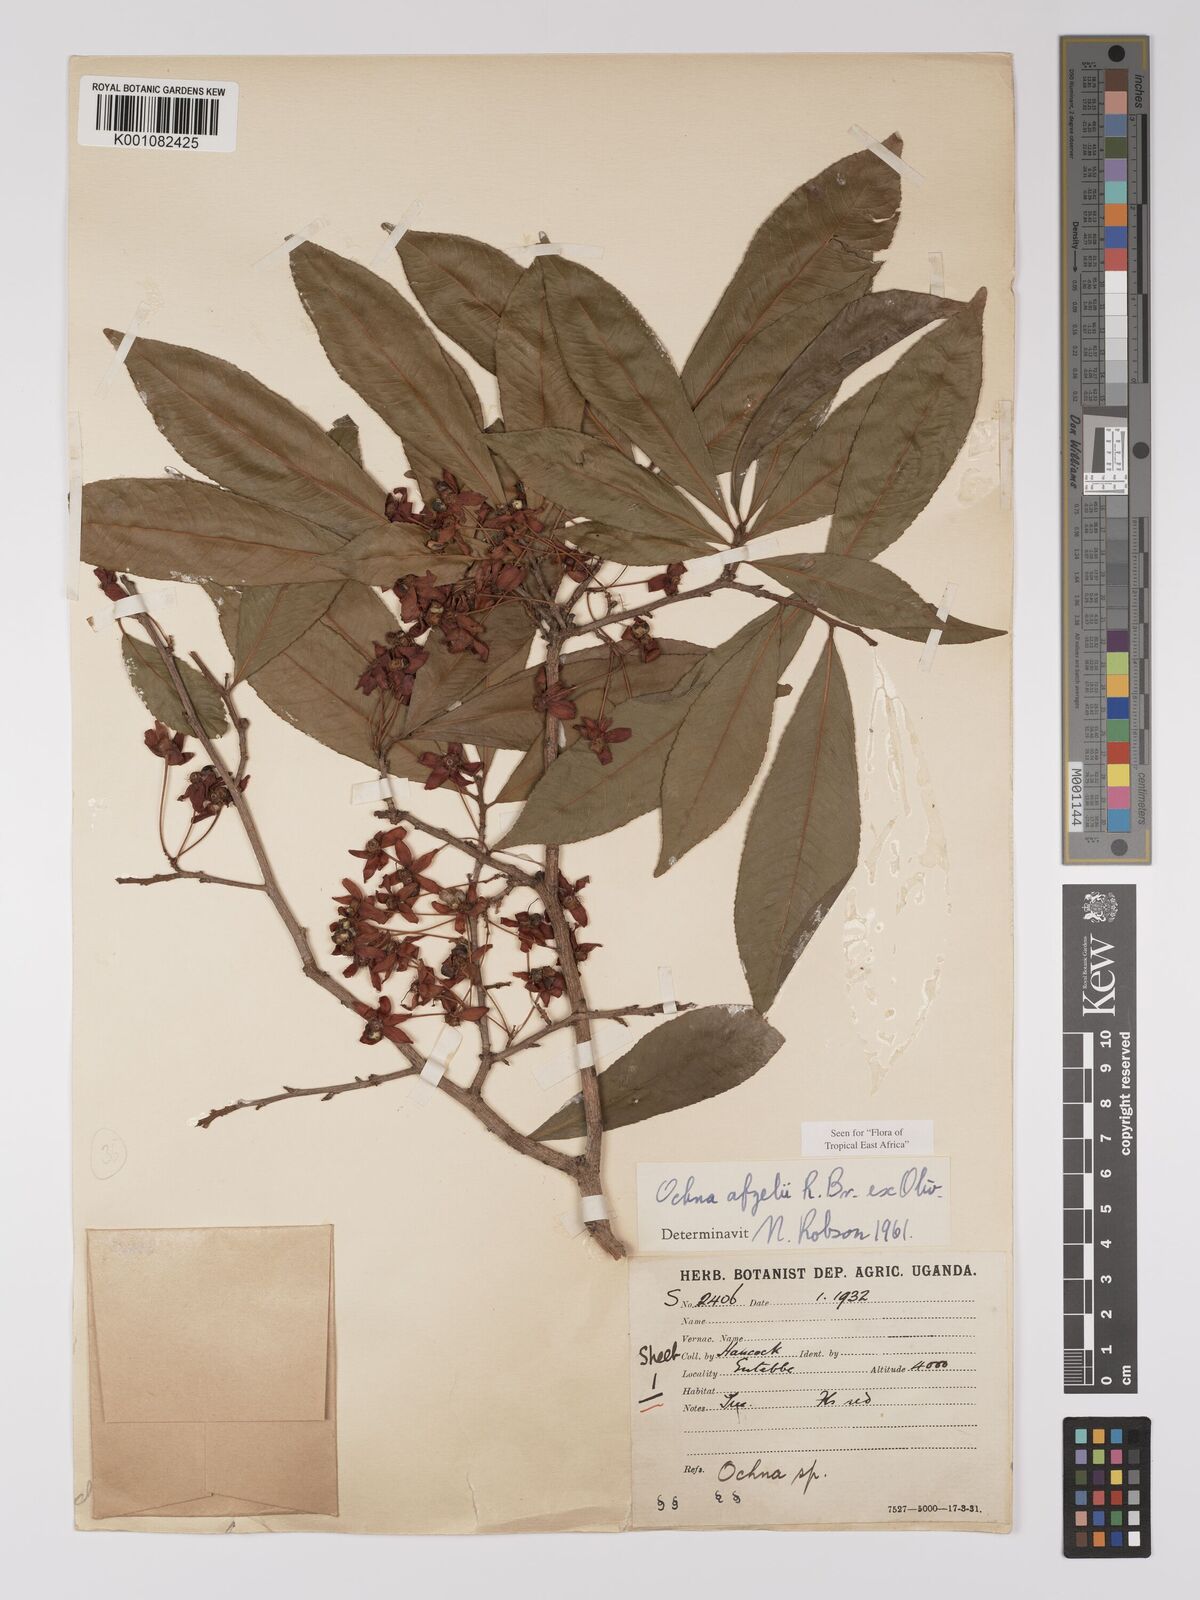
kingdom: Plantae
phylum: Tracheophyta
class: Magnoliopsida
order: Malpighiales
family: Ochnaceae
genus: Ochna
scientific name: Ochna afzelii
